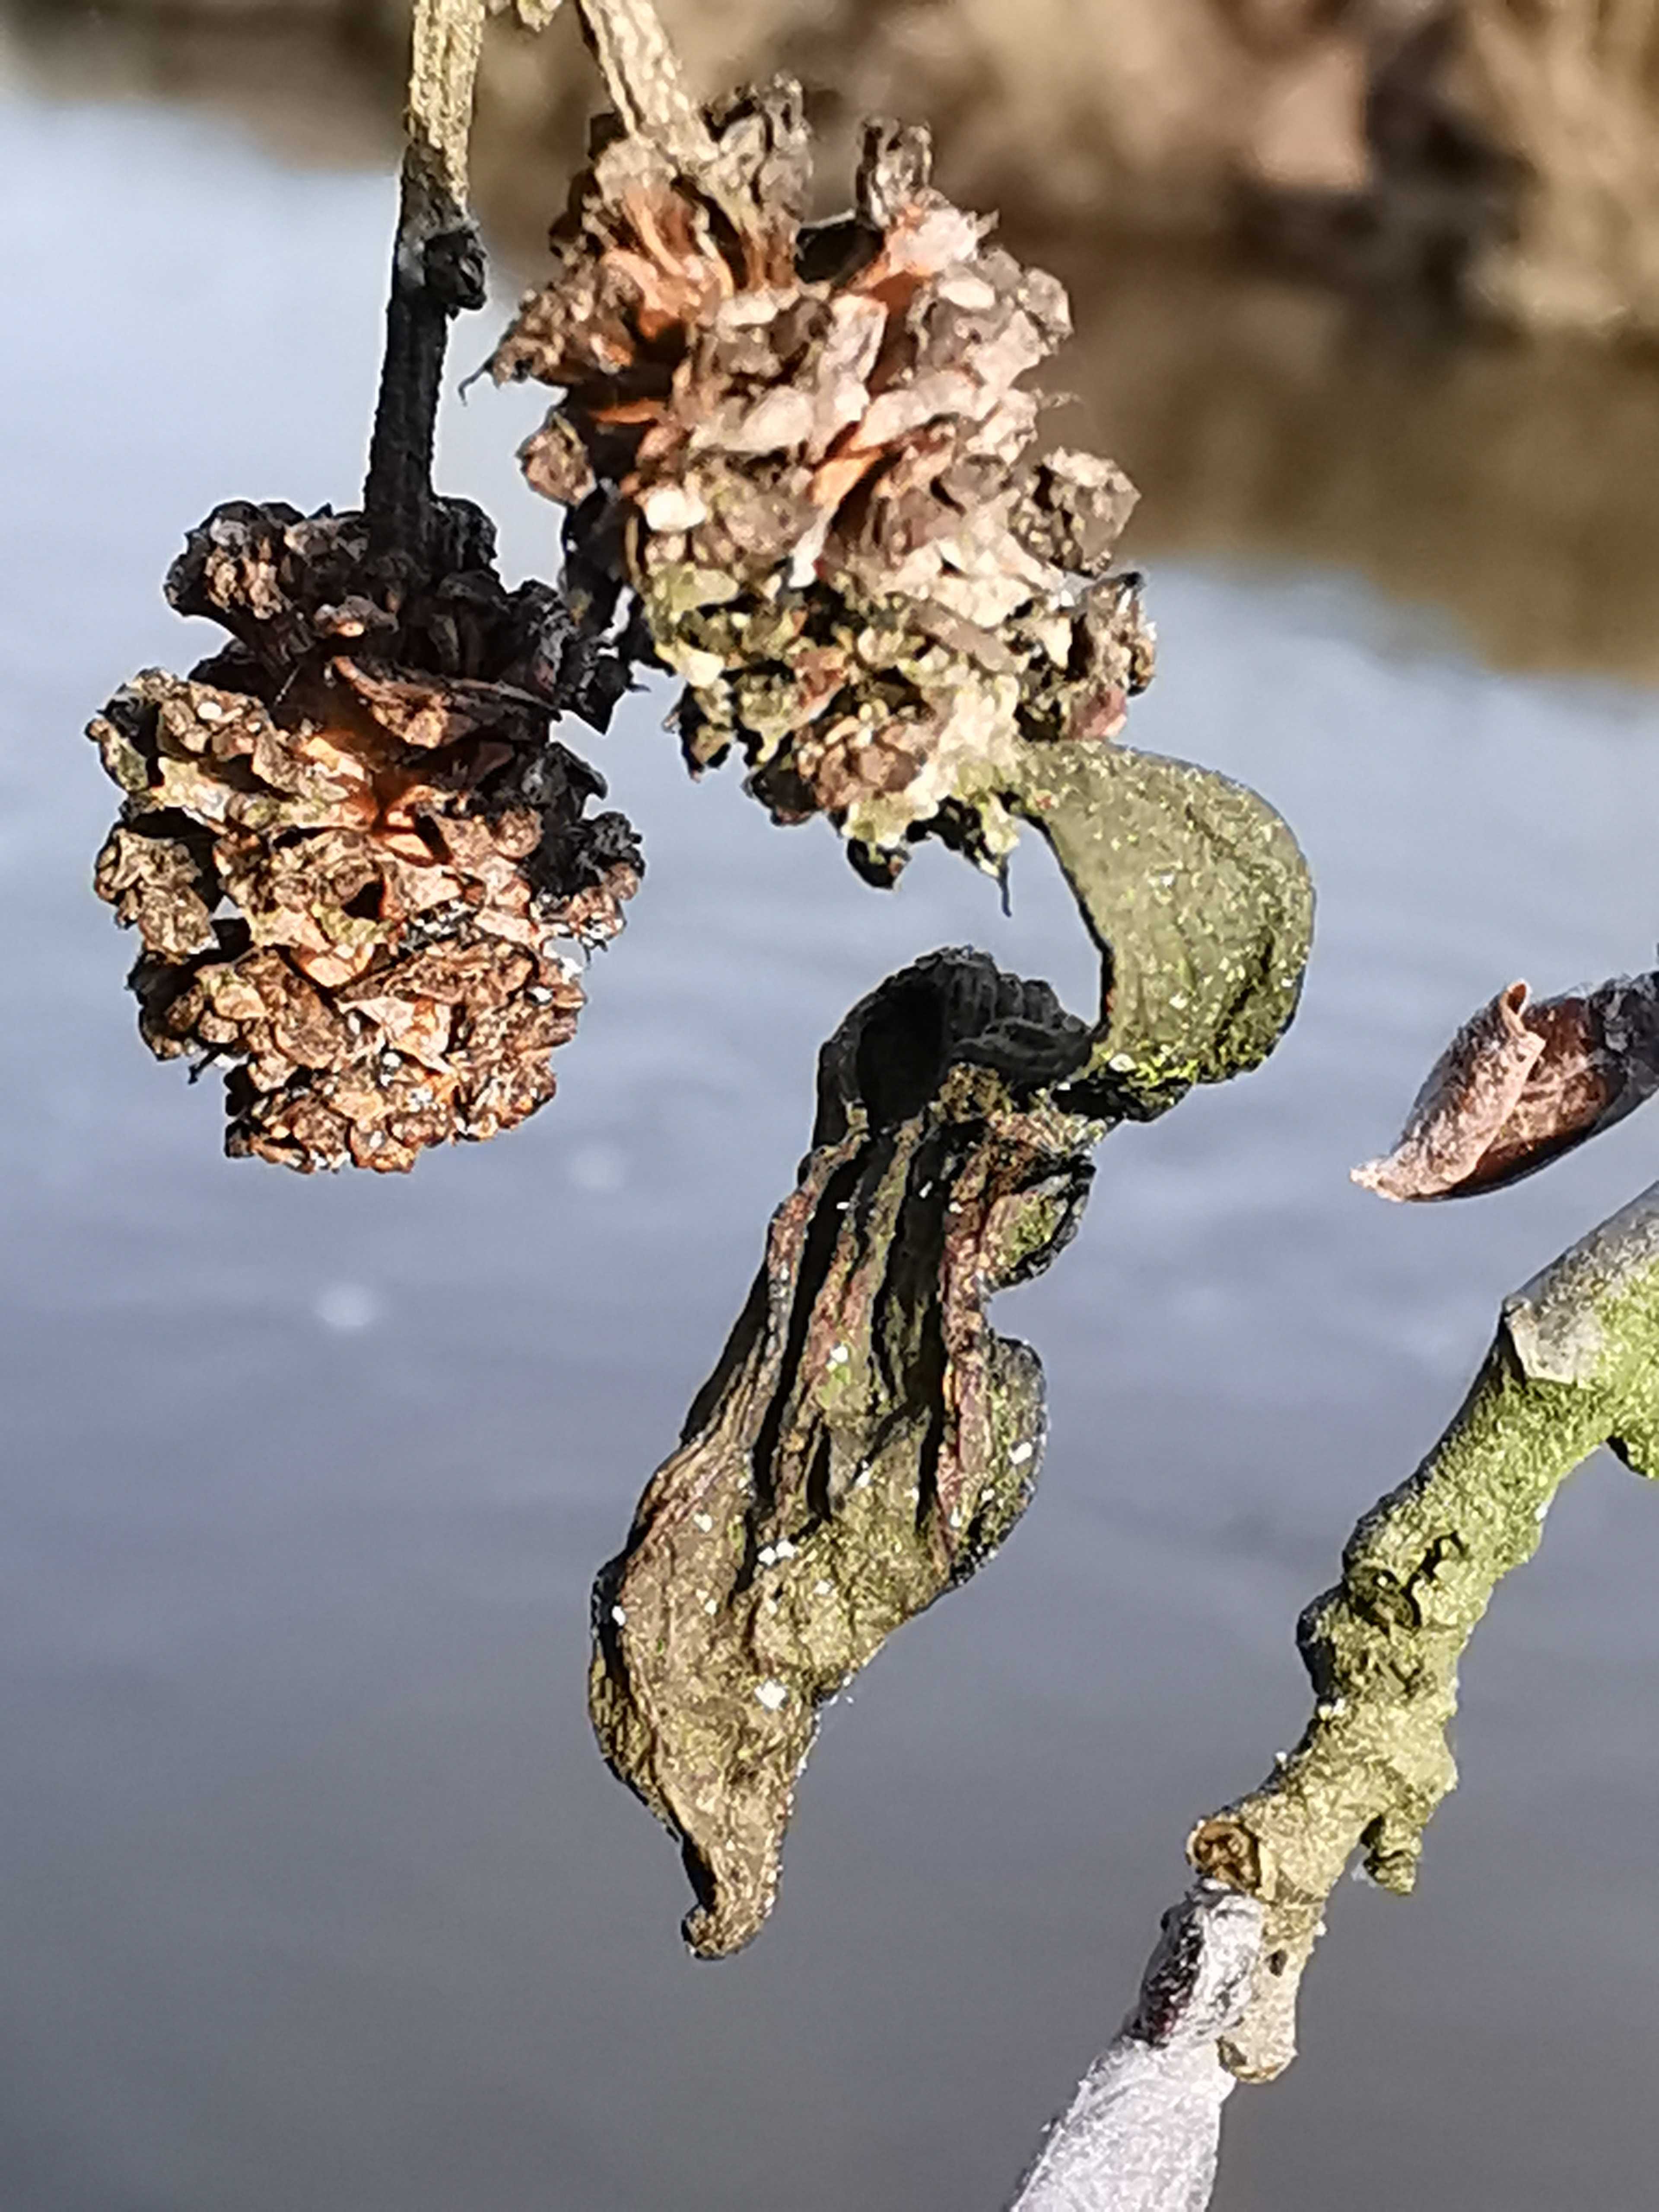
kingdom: Fungi
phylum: Ascomycota
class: Taphrinomycetes
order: Taphrinales
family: Taphrinaceae
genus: Taphrina
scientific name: Taphrina alni
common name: Alder tongue
